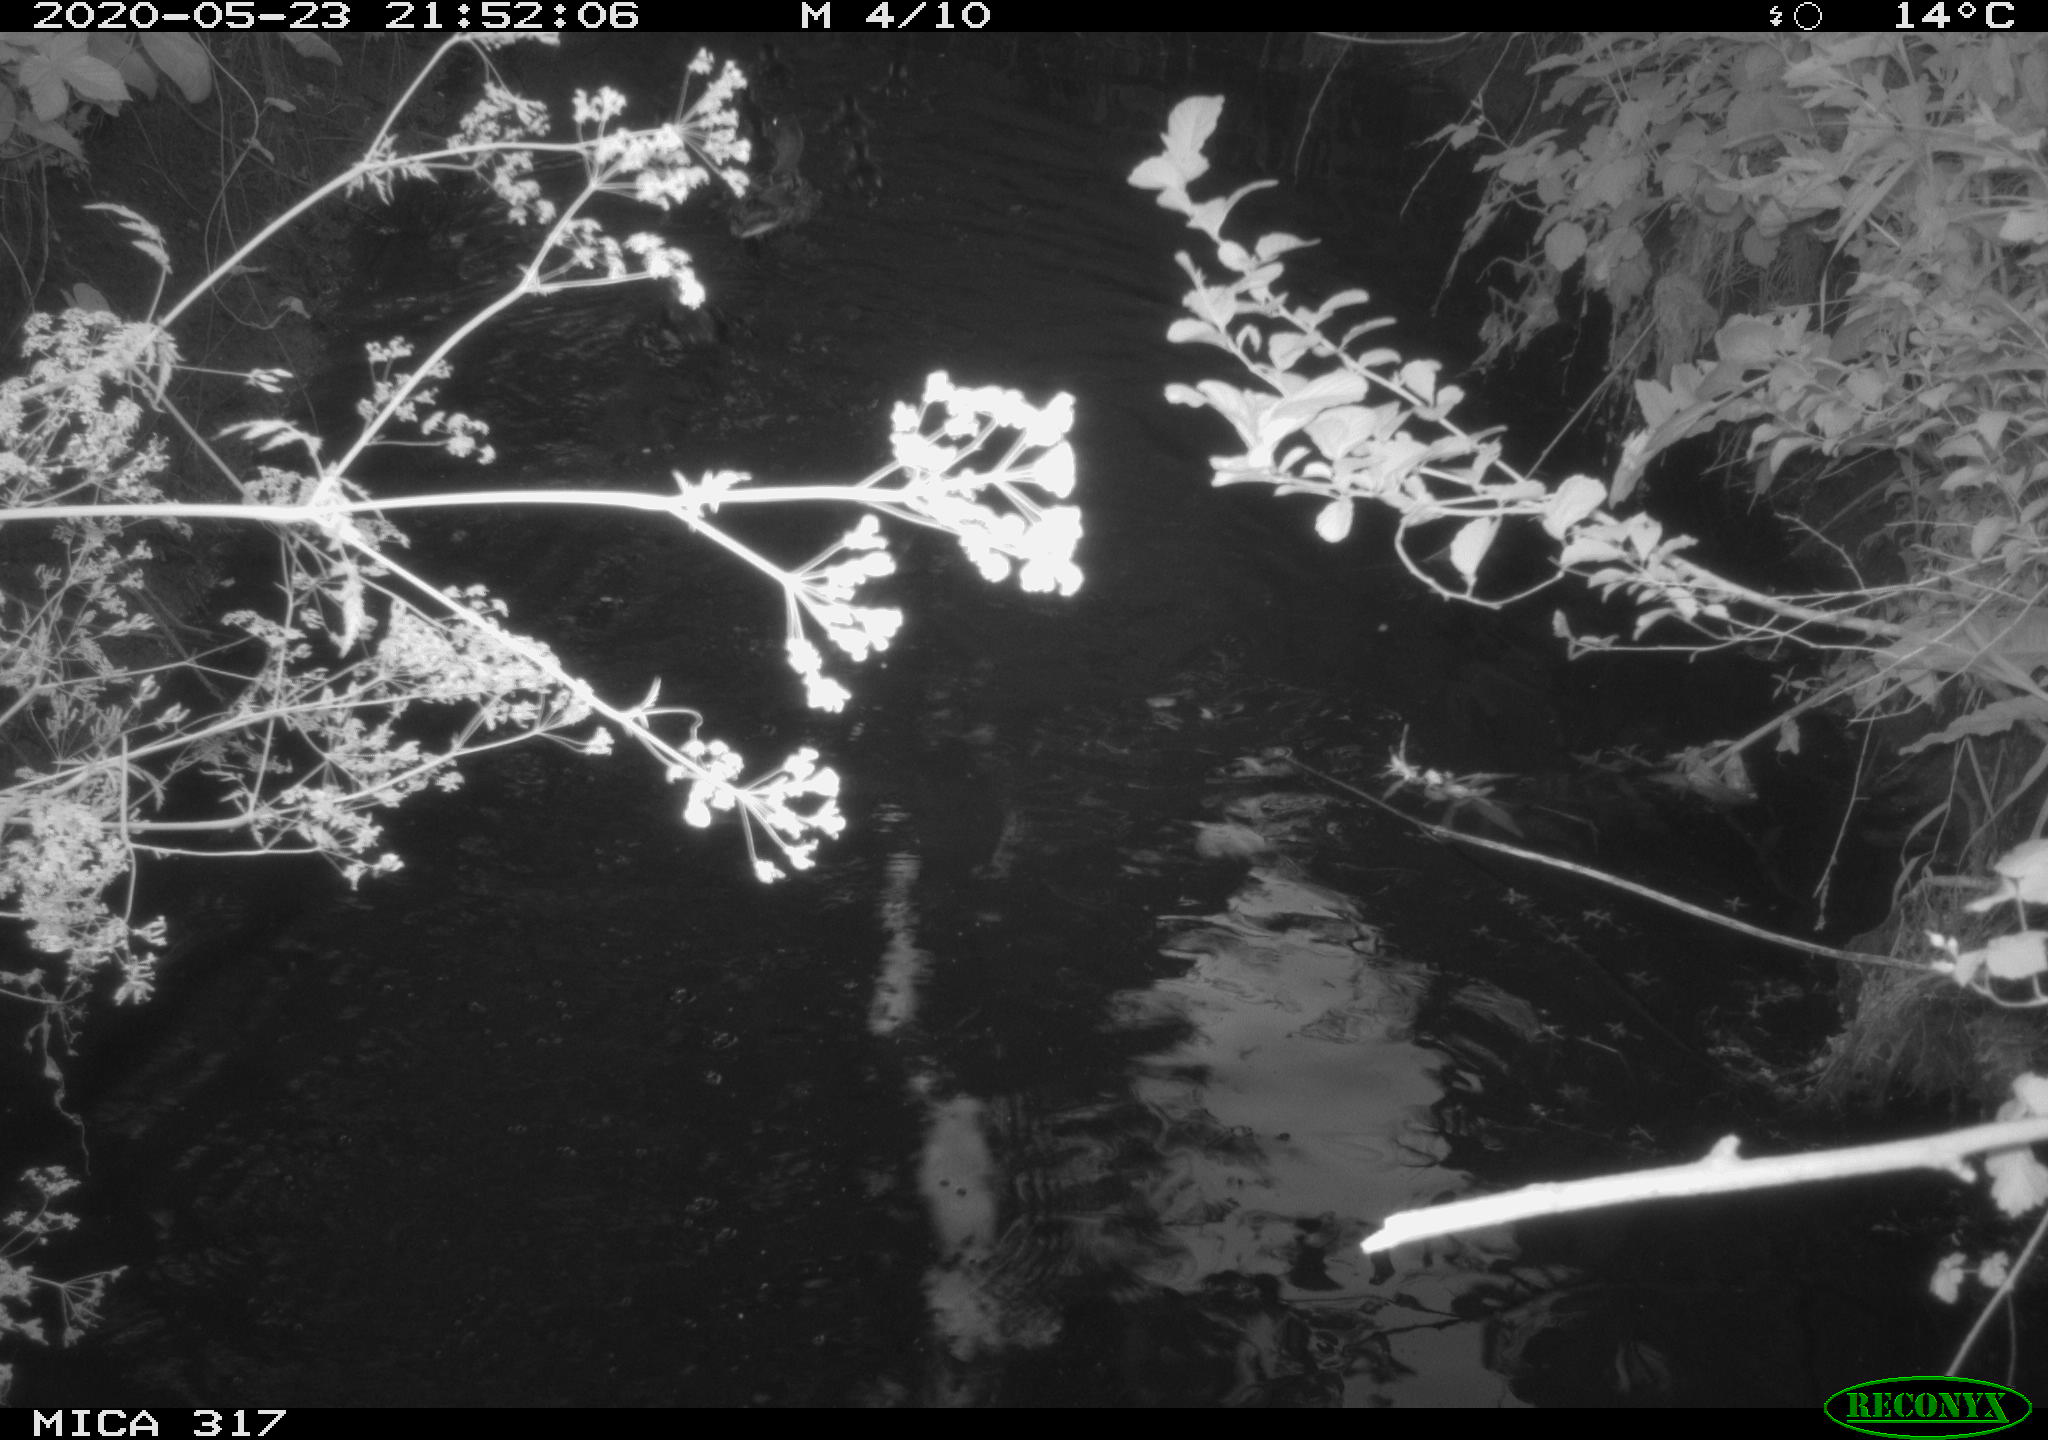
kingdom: Animalia
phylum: Chordata
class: Aves
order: Anseriformes
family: Anatidae
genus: Anas
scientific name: Anas platyrhynchos
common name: Mallard
